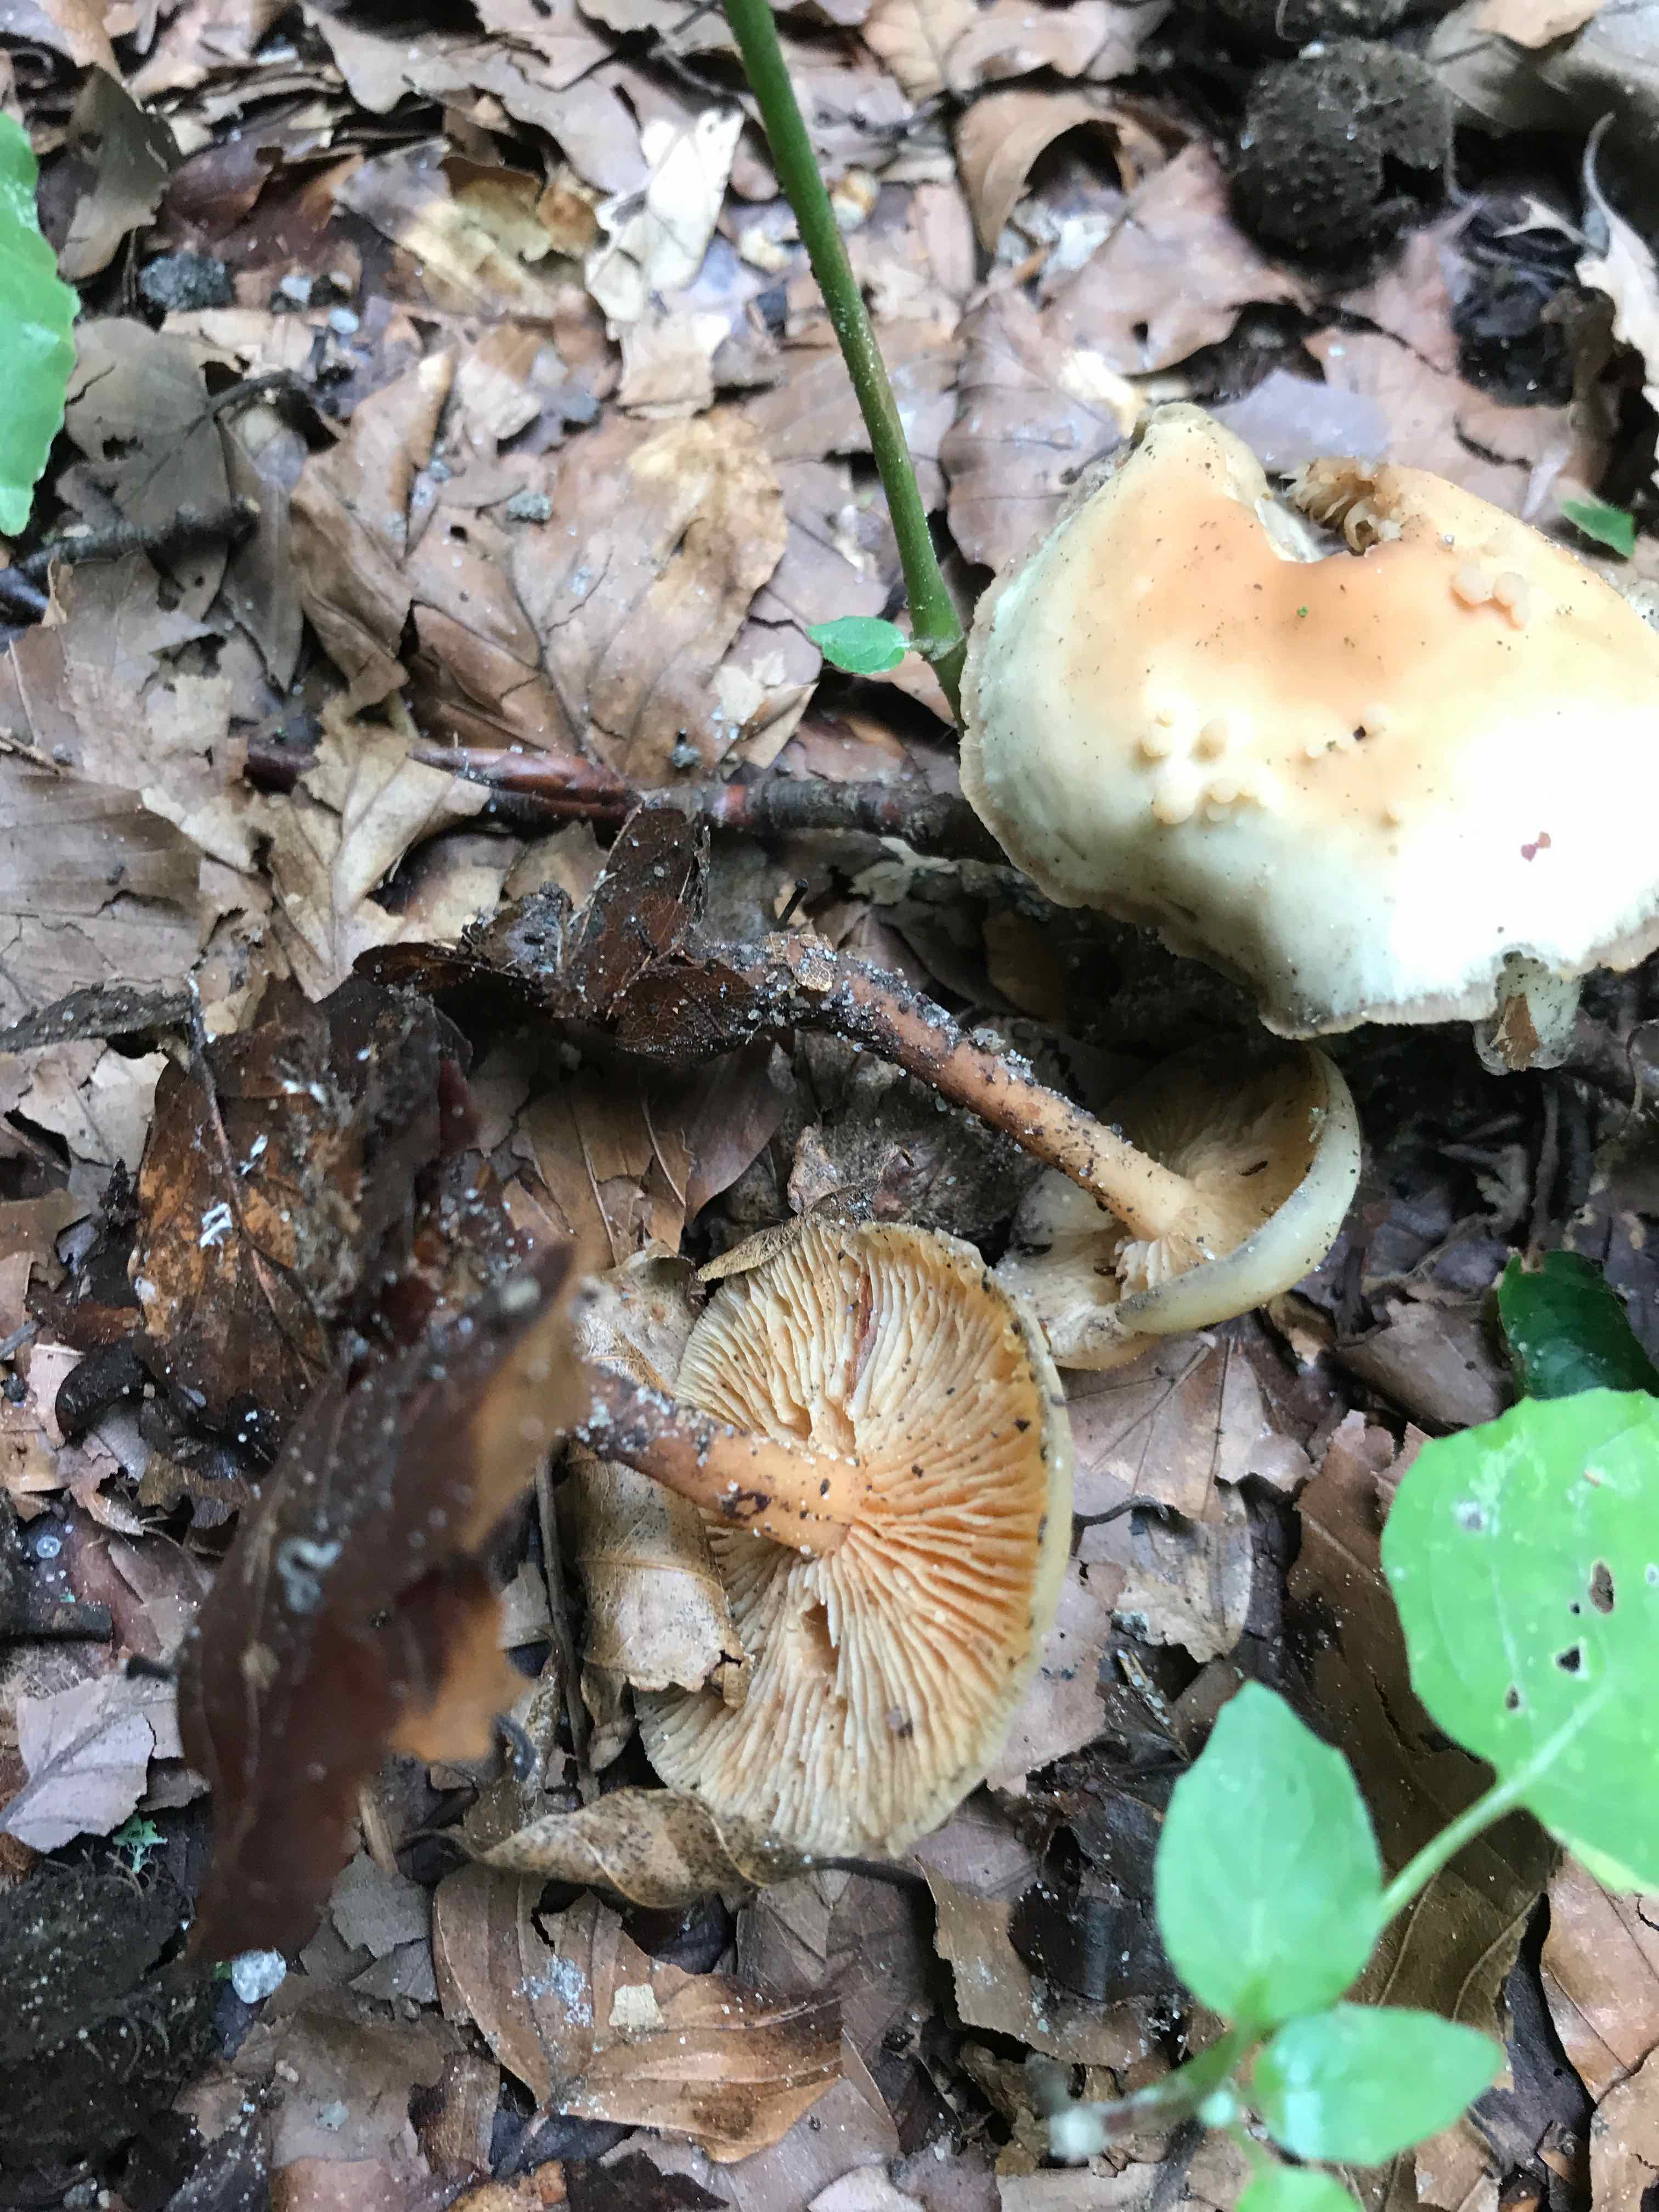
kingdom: Fungi
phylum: Basidiomycota
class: Agaricomycetes
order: Agaricales
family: Omphalotaceae
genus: Gymnopus
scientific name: Gymnopus dryophilus
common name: løv-fladhat
